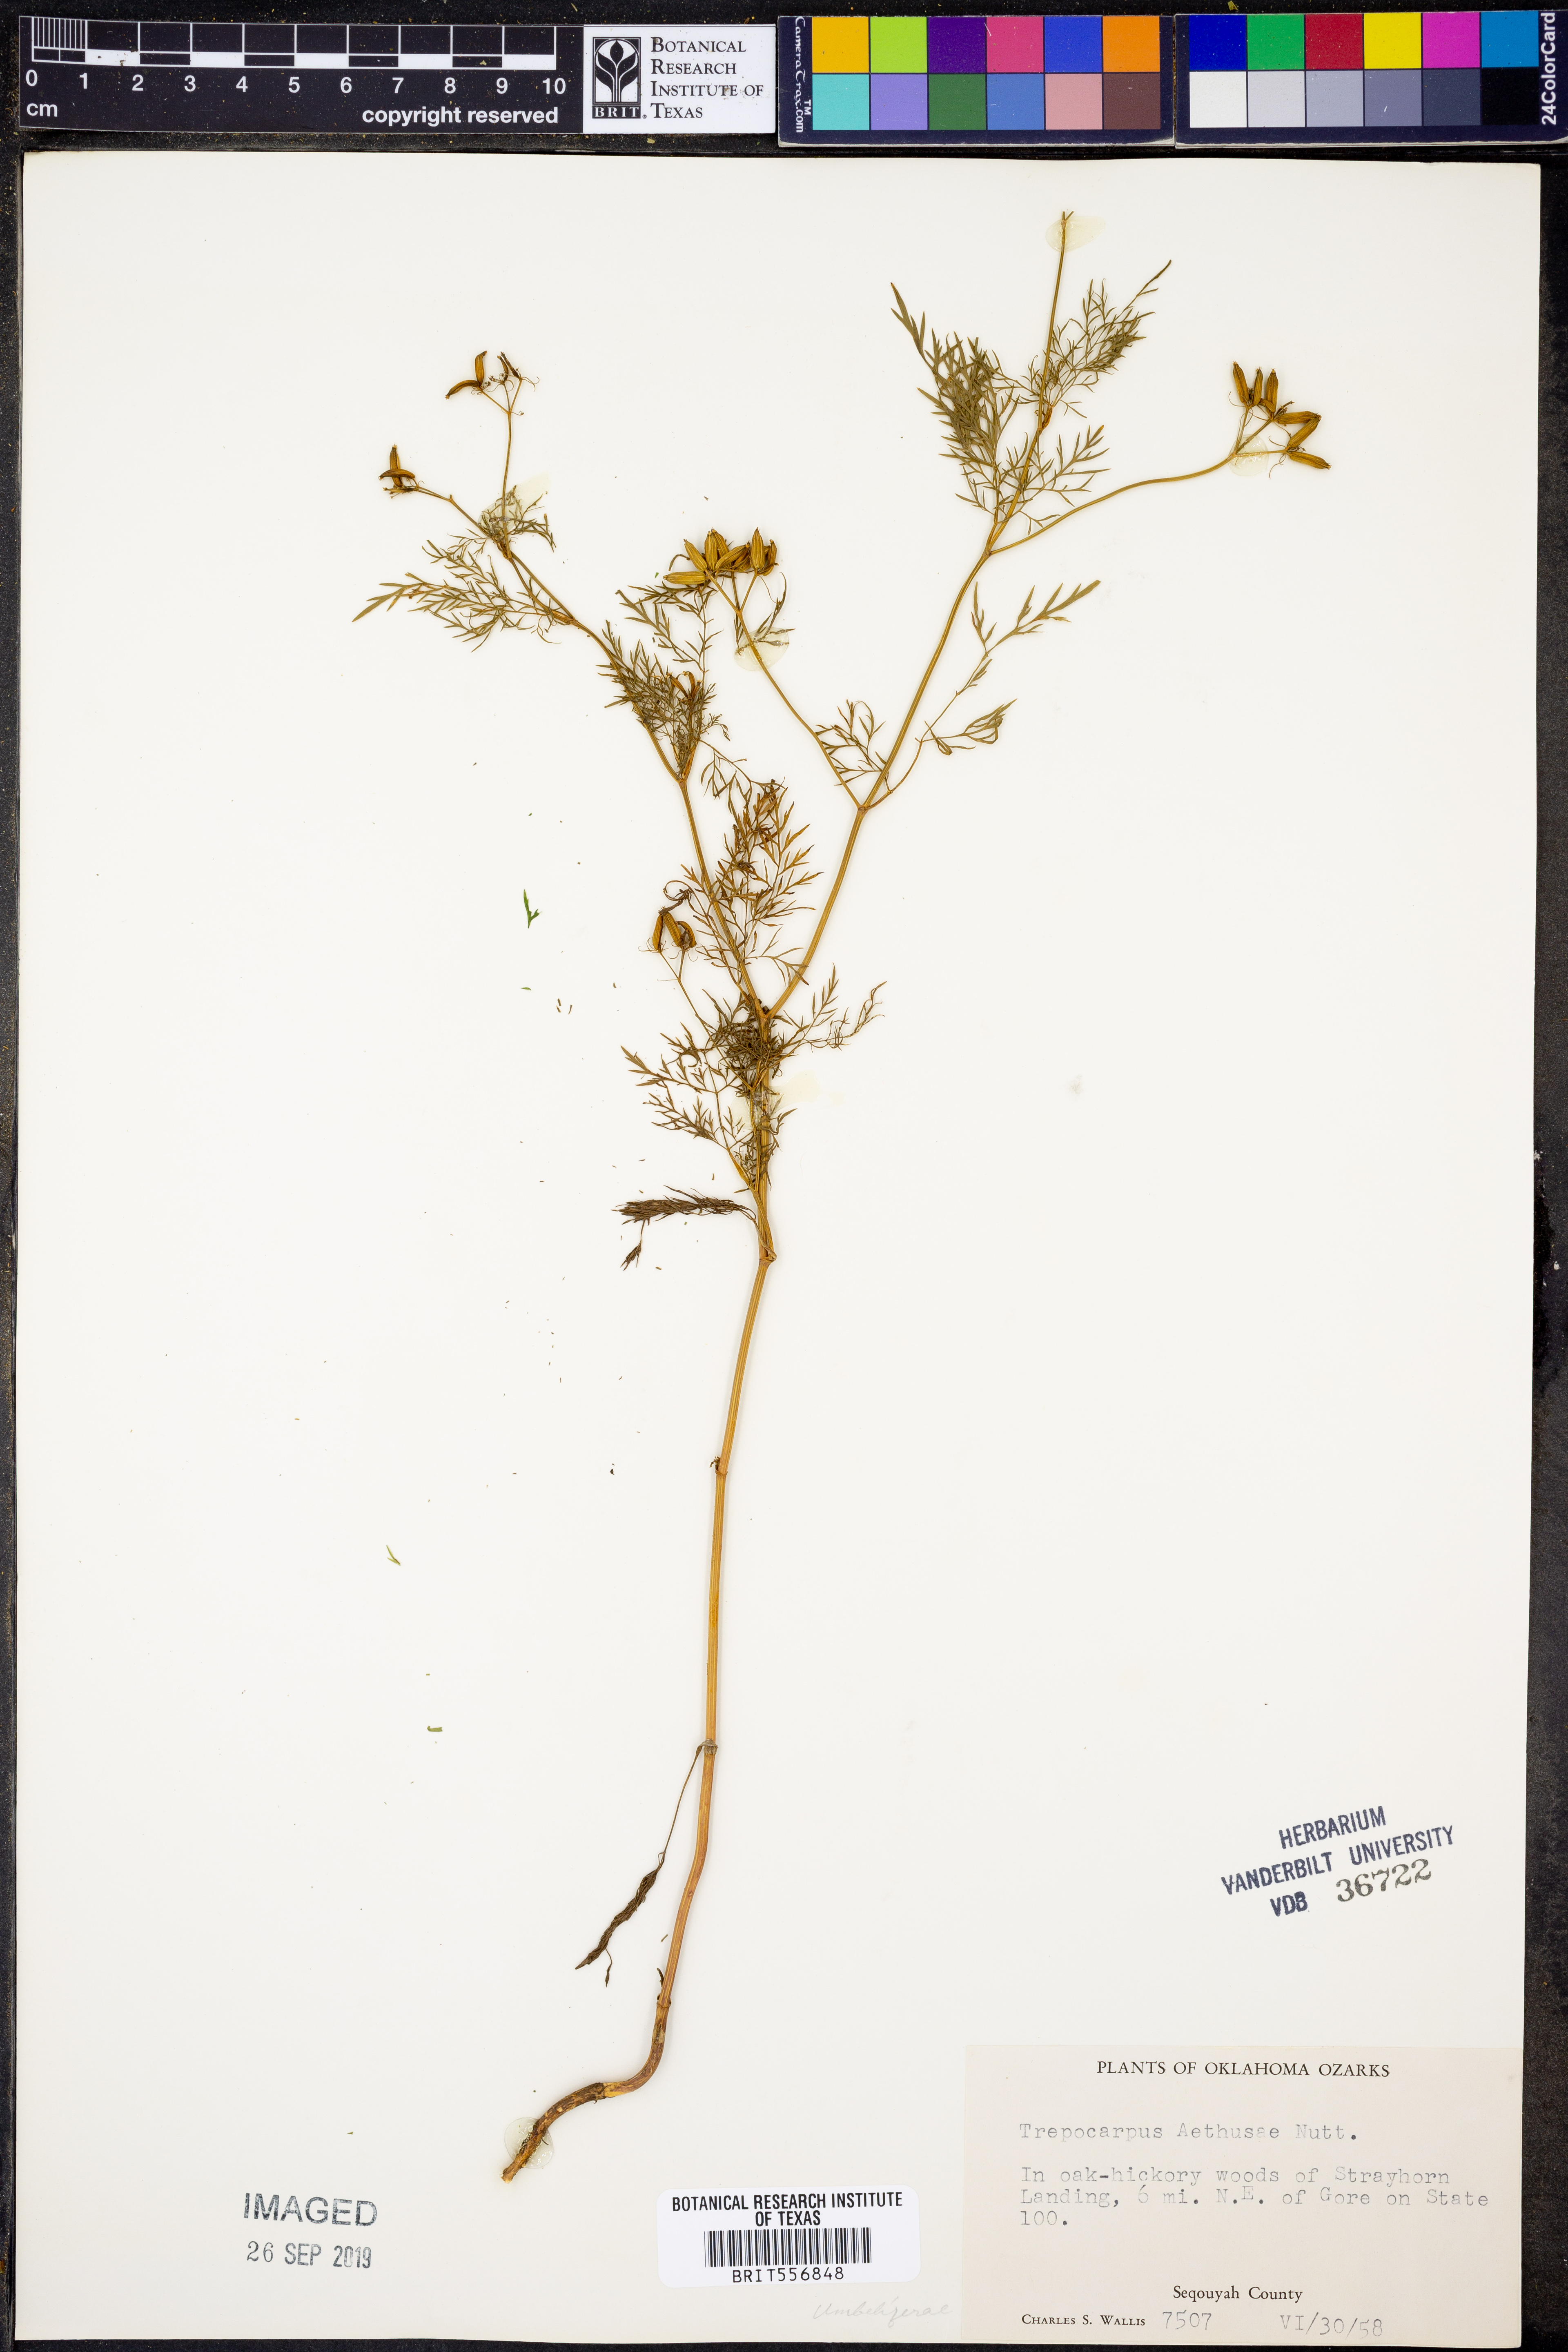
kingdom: Plantae
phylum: Tracheophyta
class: Magnoliopsida
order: Apiales
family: Apiaceae
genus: Trepocarpus
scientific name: Trepocarpus aethusae
